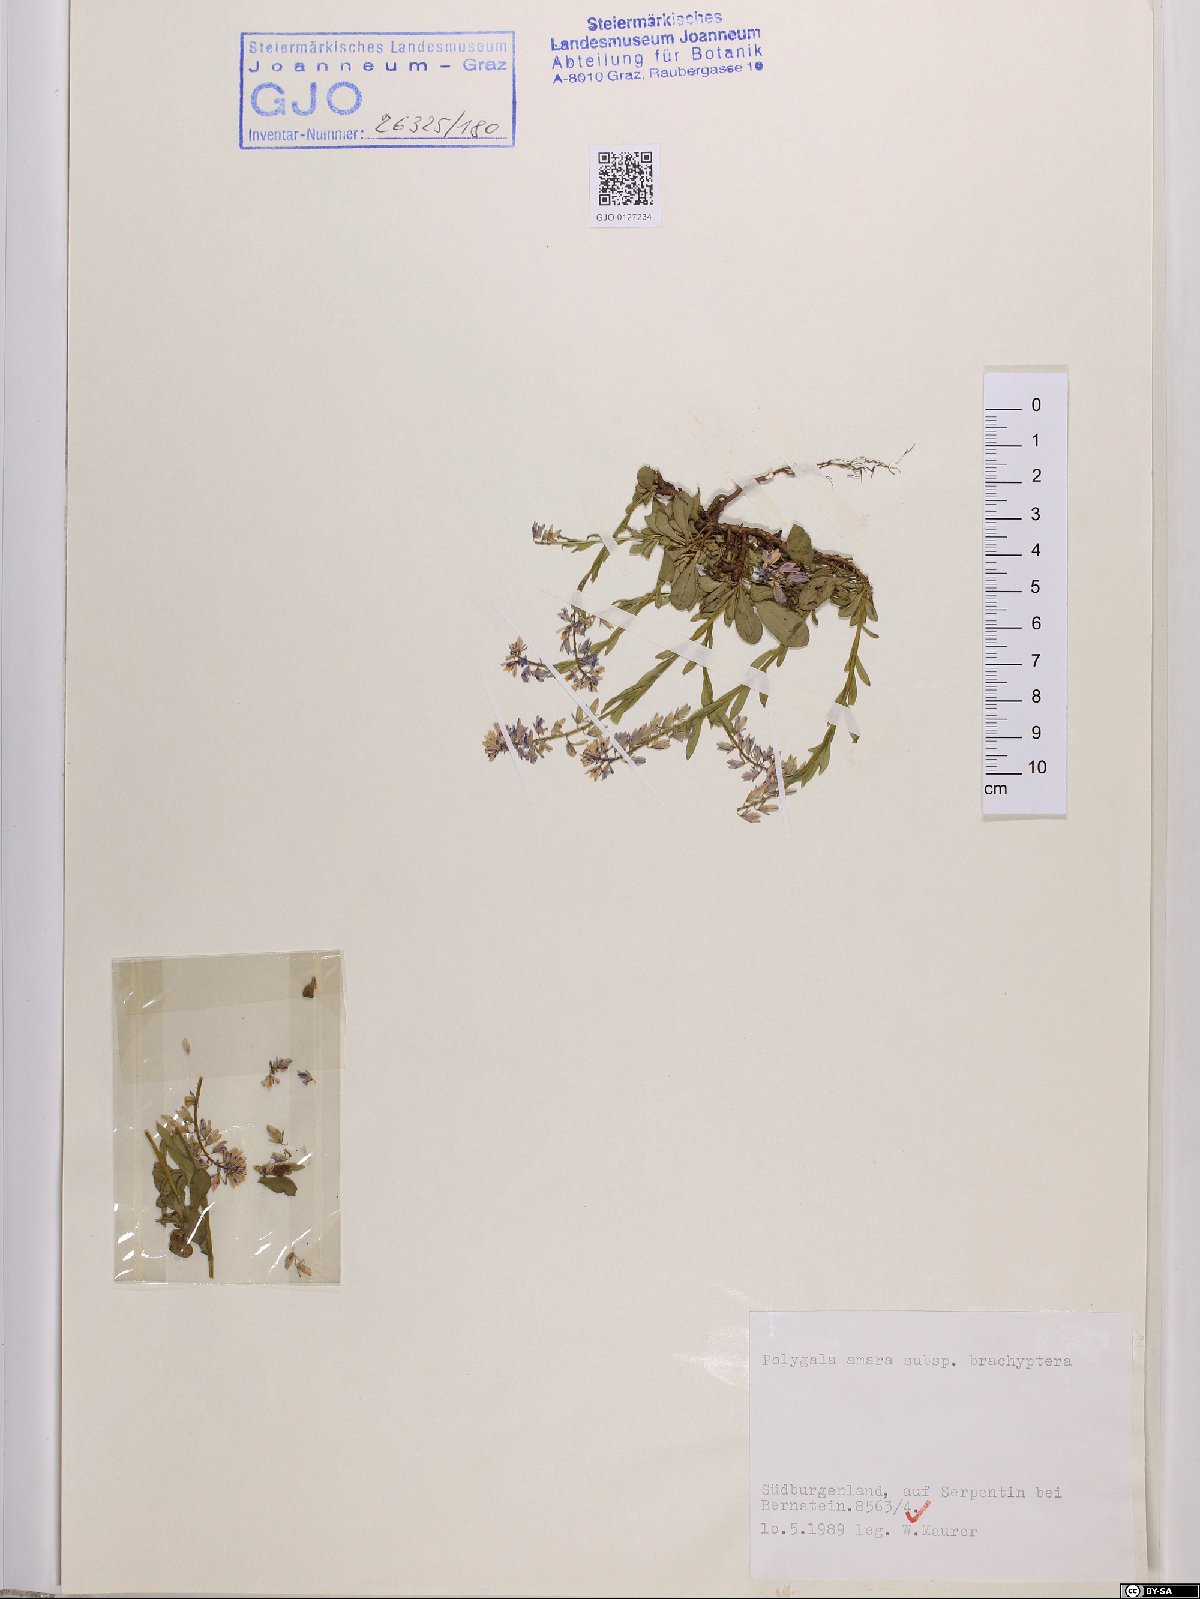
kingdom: Plantae
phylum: Tracheophyta
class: Magnoliopsida
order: Fabales
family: Polygalaceae
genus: Polygala
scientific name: Polygala amara
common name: Milkwort
